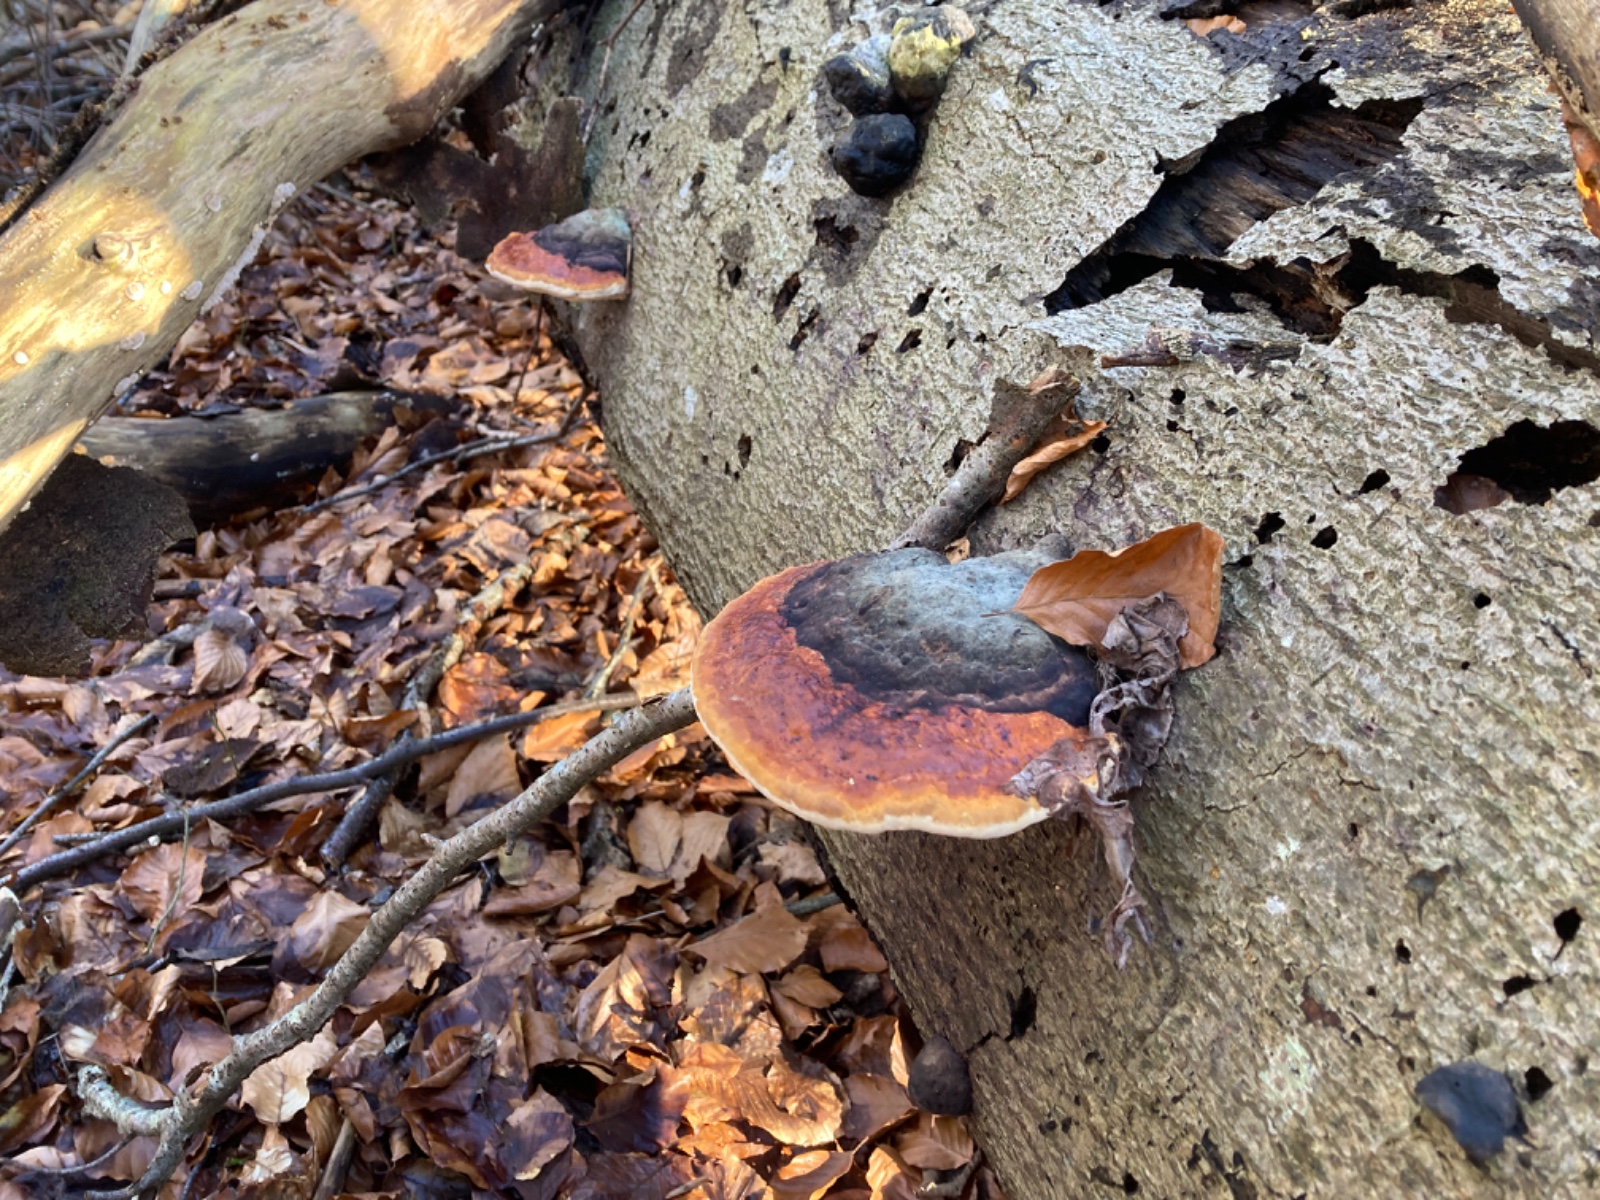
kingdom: Fungi
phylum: Basidiomycota
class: Agaricomycetes
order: Polyporales
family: Fomitopsidaceae
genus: Fomitopsis
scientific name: Fomitopsis pinicola
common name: randbæltet hovporesvamp
